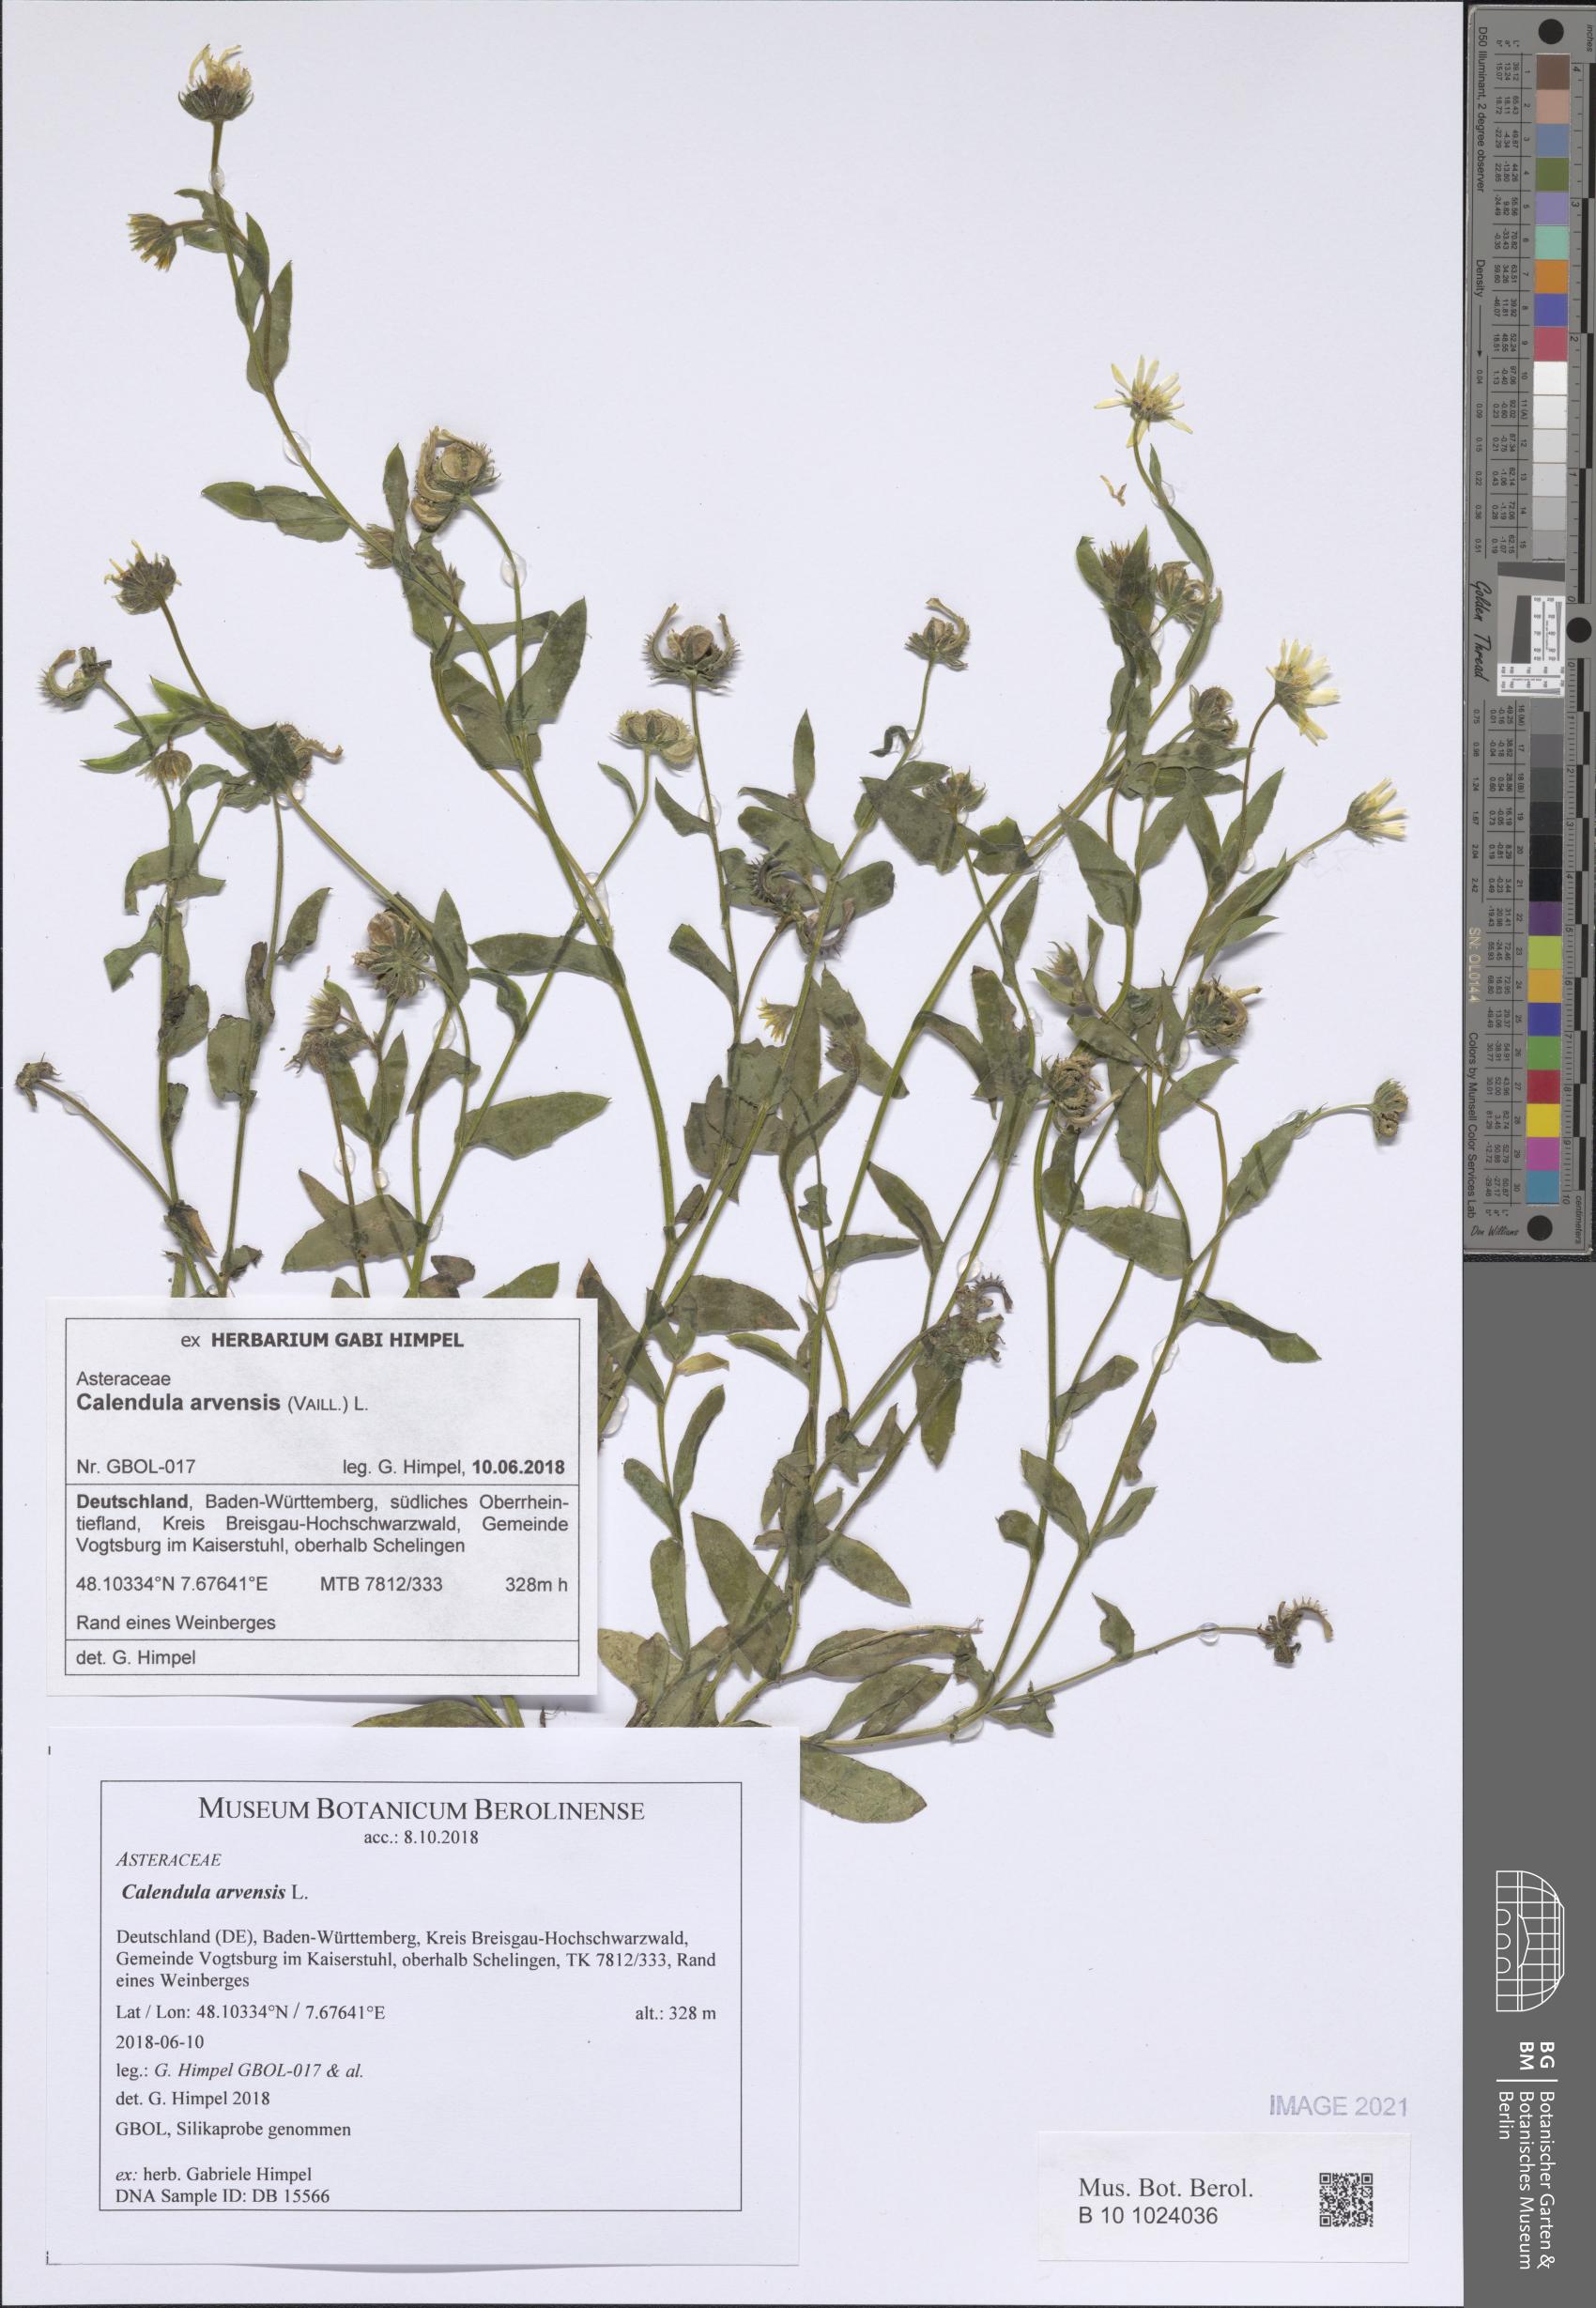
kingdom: Plantae
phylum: Tracheophyta
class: Magnoliopsida
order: Asterales
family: Asteraceae
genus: Calendula
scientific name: Calendula arvensis
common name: Field marigold
